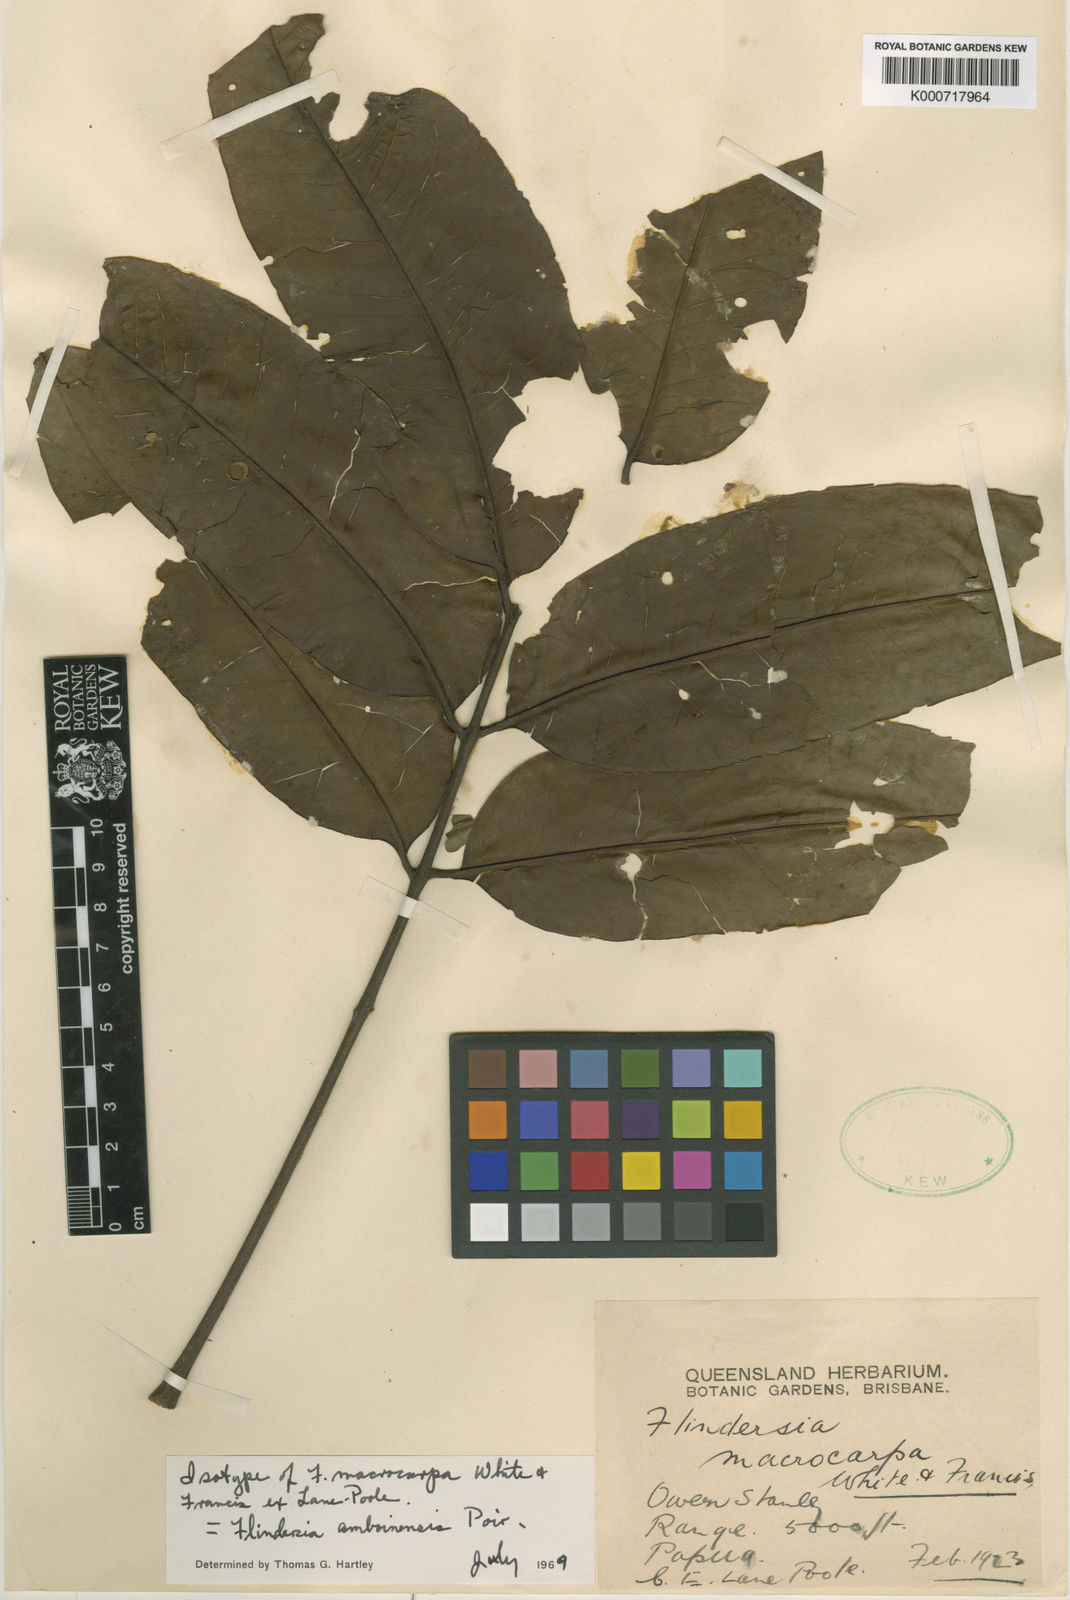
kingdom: Plantae
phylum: Tracheophyta
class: Magnoliopsida
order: Sapindales
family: Rutaceae
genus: Flindersia
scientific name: Flindersia amboinensis
